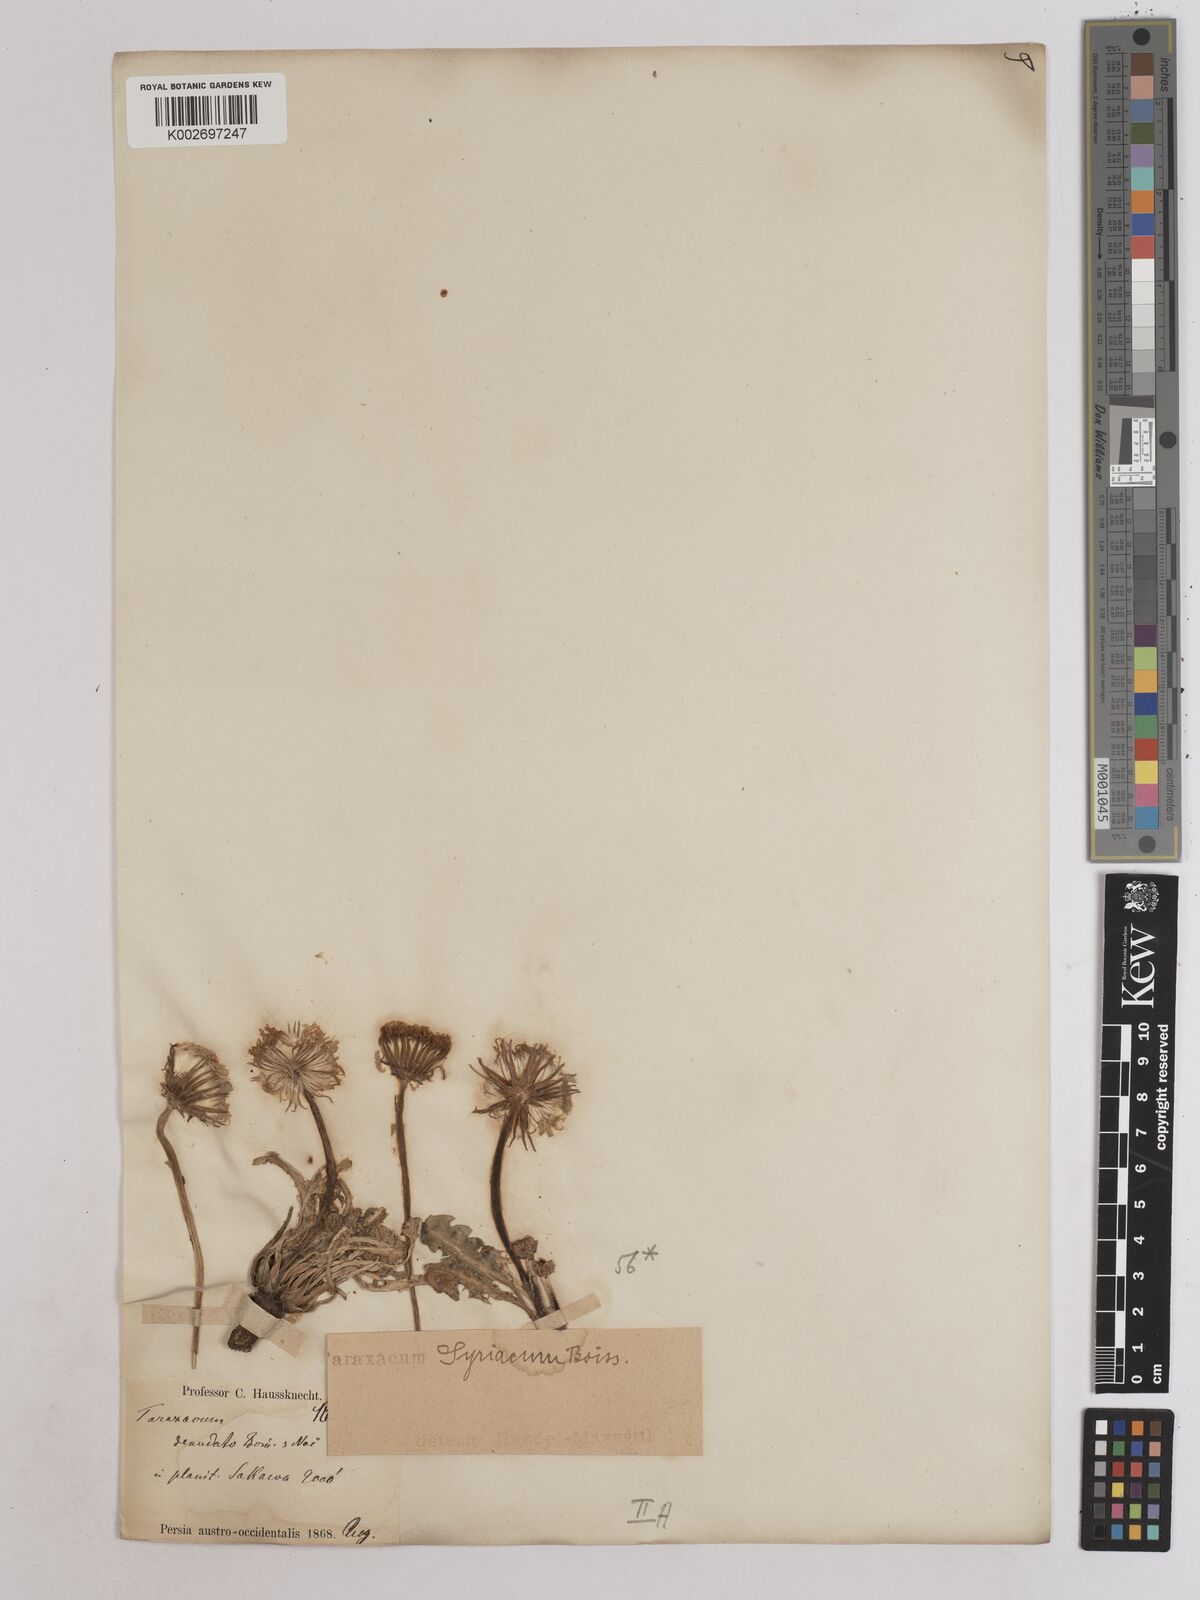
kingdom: Plantae
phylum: Tracheophyta
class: Magnoliopsida
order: Asterales
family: Asteraceae
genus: Taraxacum
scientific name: Taraxacum syriacum
